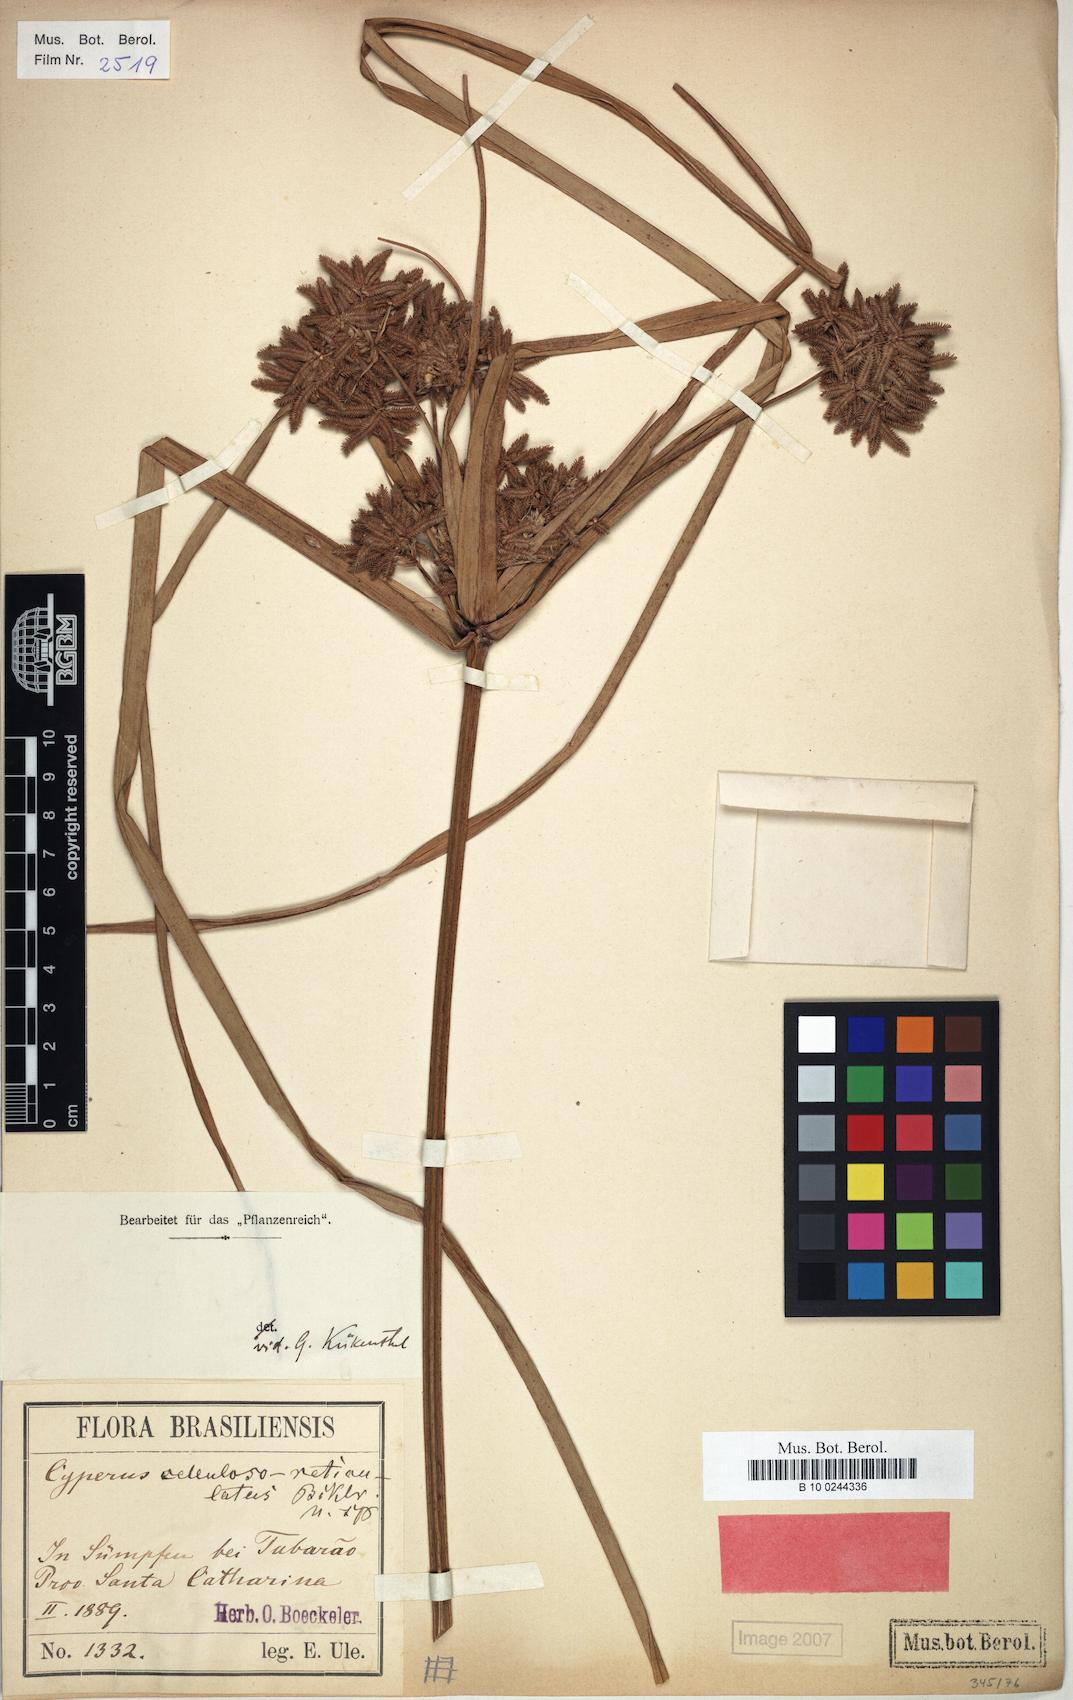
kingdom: Plantae
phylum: Tracheophyta
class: Liliopsida
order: Poales
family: Cyperaceae
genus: Cyperus
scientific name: Cyperus cellulosoreticulatus
